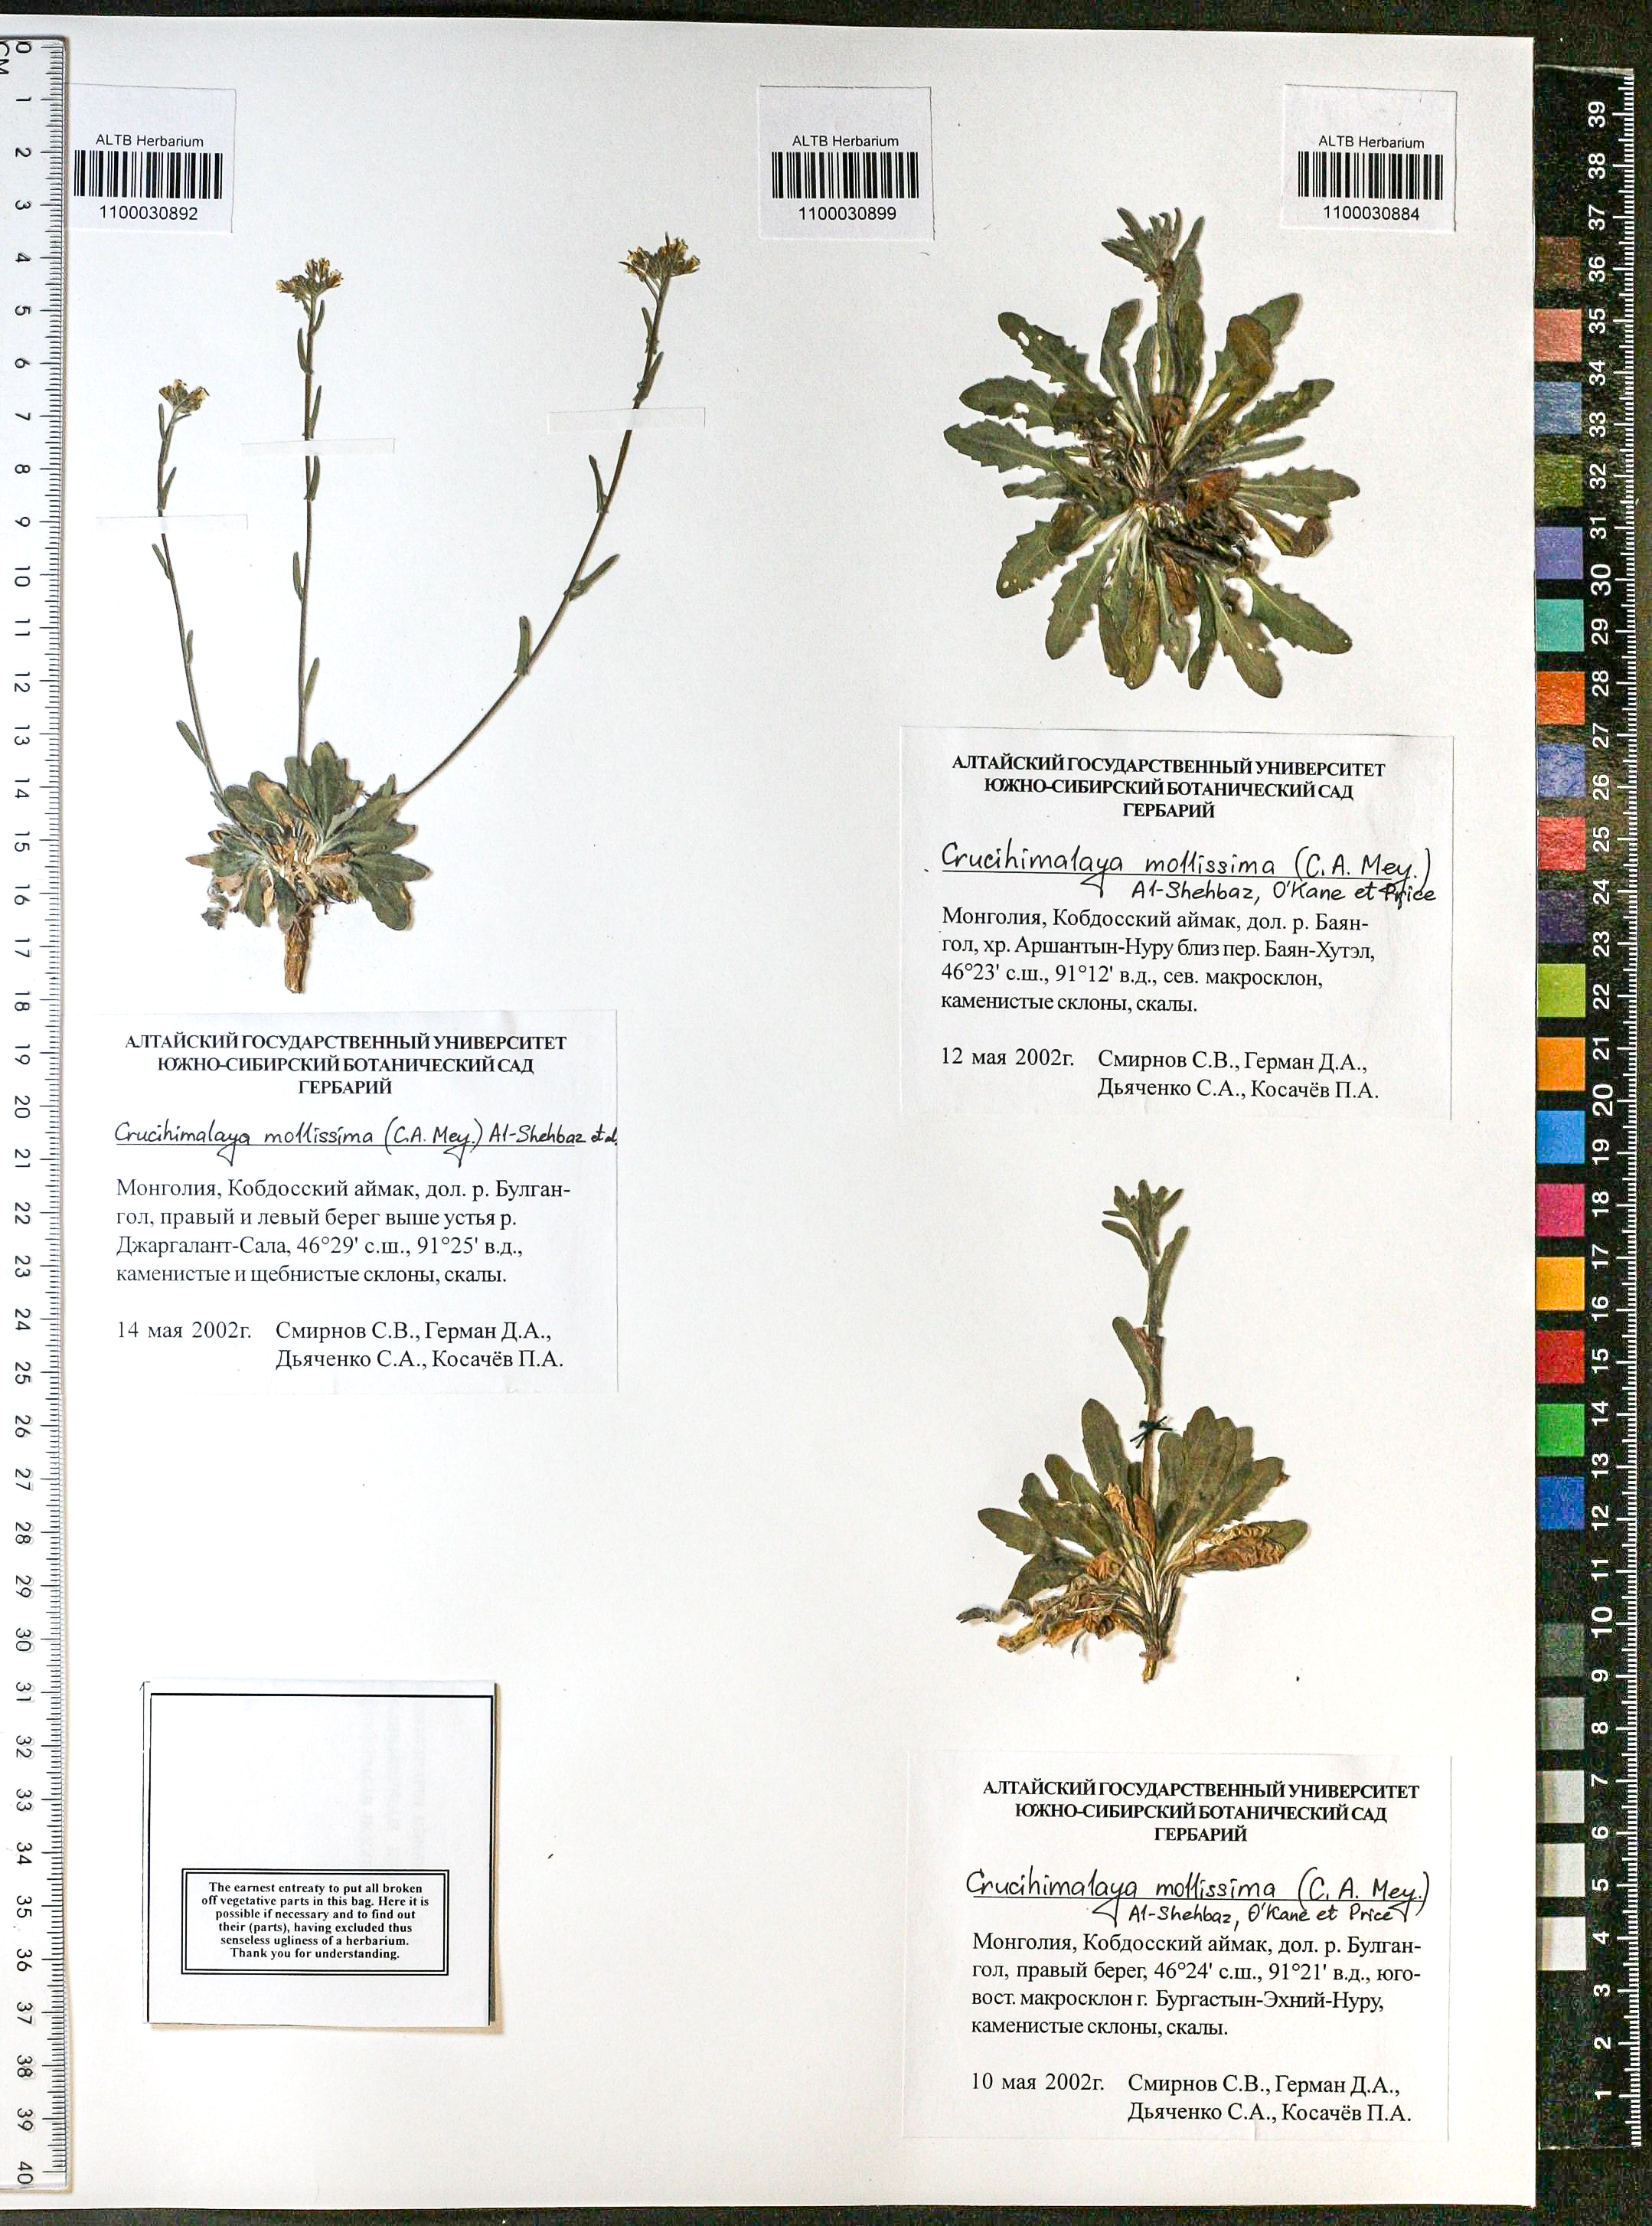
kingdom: Plantae
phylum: Tracheophyta
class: Magnoliopsida
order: Brassicales
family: Brassicaceae
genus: Crucihimalaya
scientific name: Crucihimalaya mollissima
